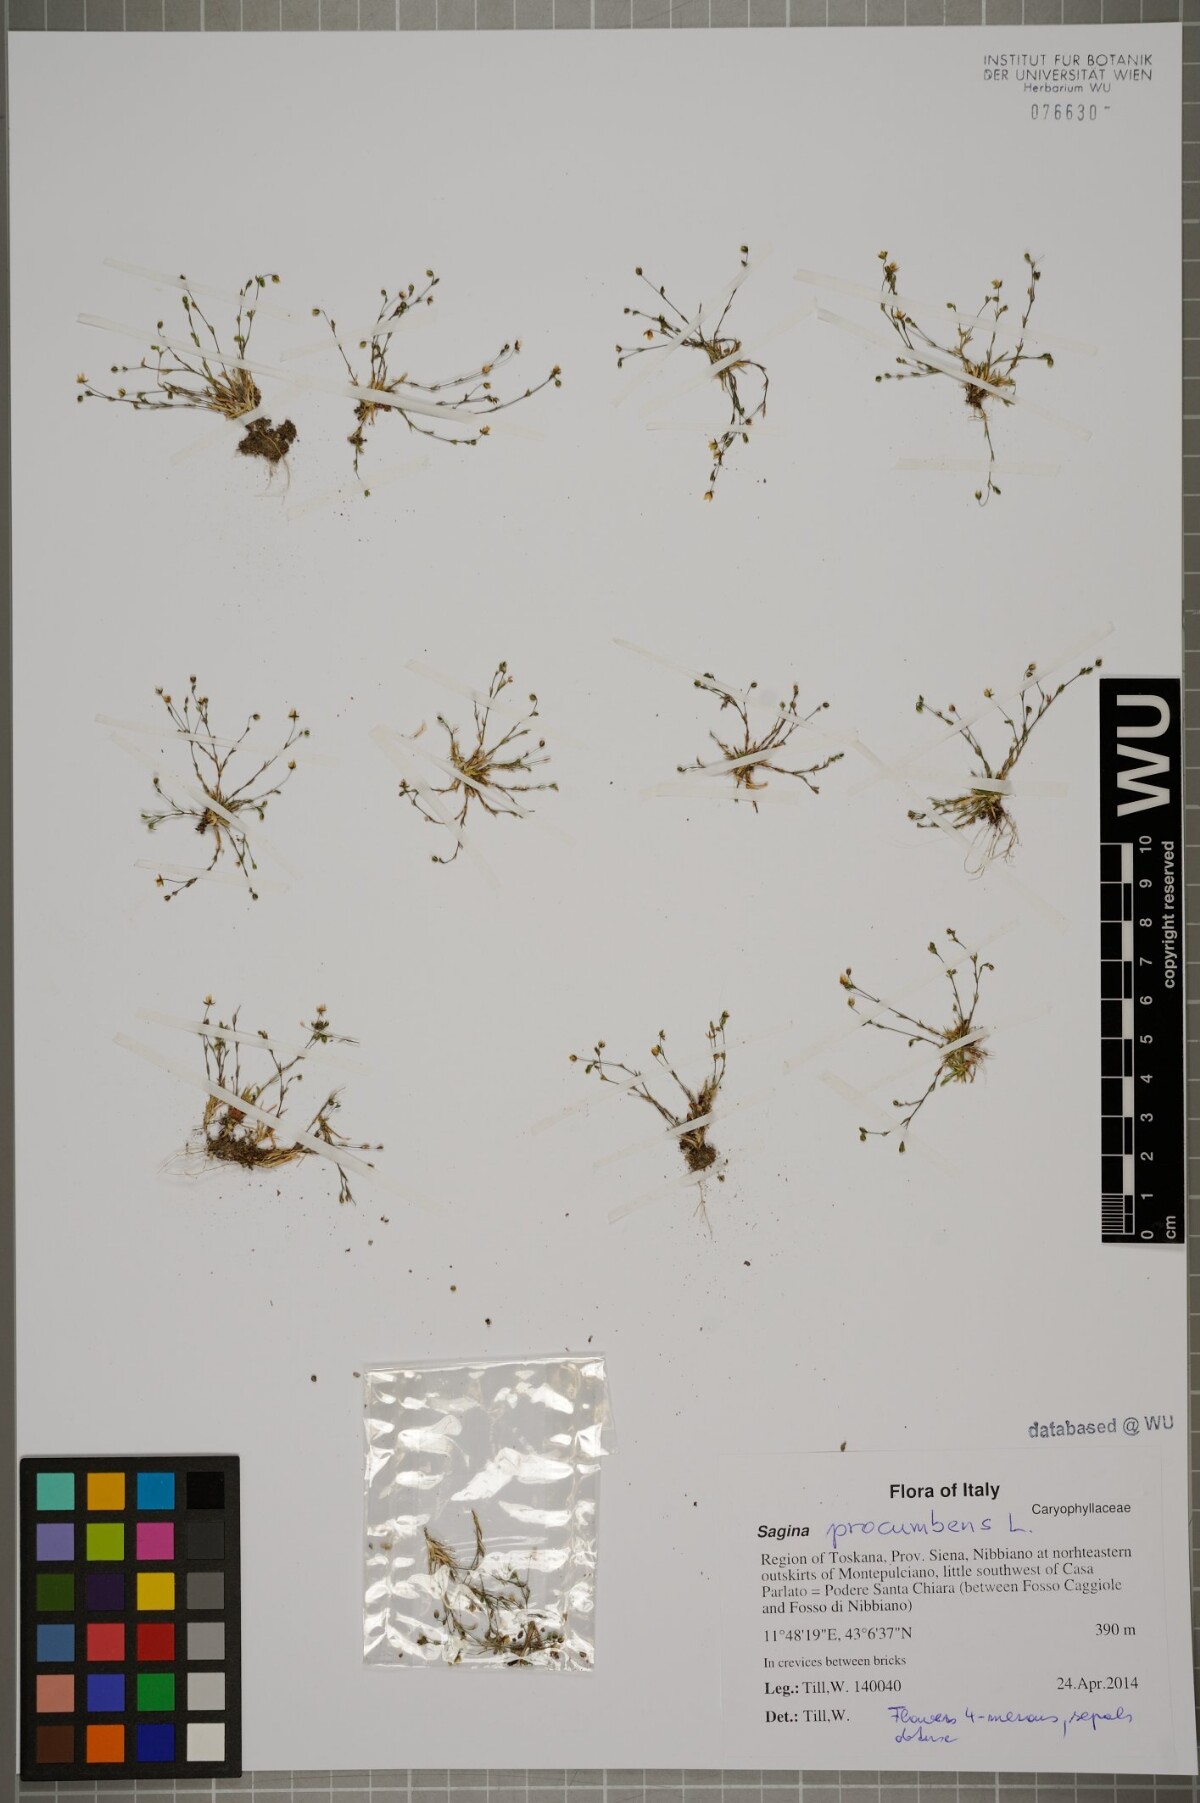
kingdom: Plantae
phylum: Tracheophyta
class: Magnoliopsida
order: Caryophyllales
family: Caryophyllaceae
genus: Sagina
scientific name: Sagina procumbens
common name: Procumbent pearlwort
